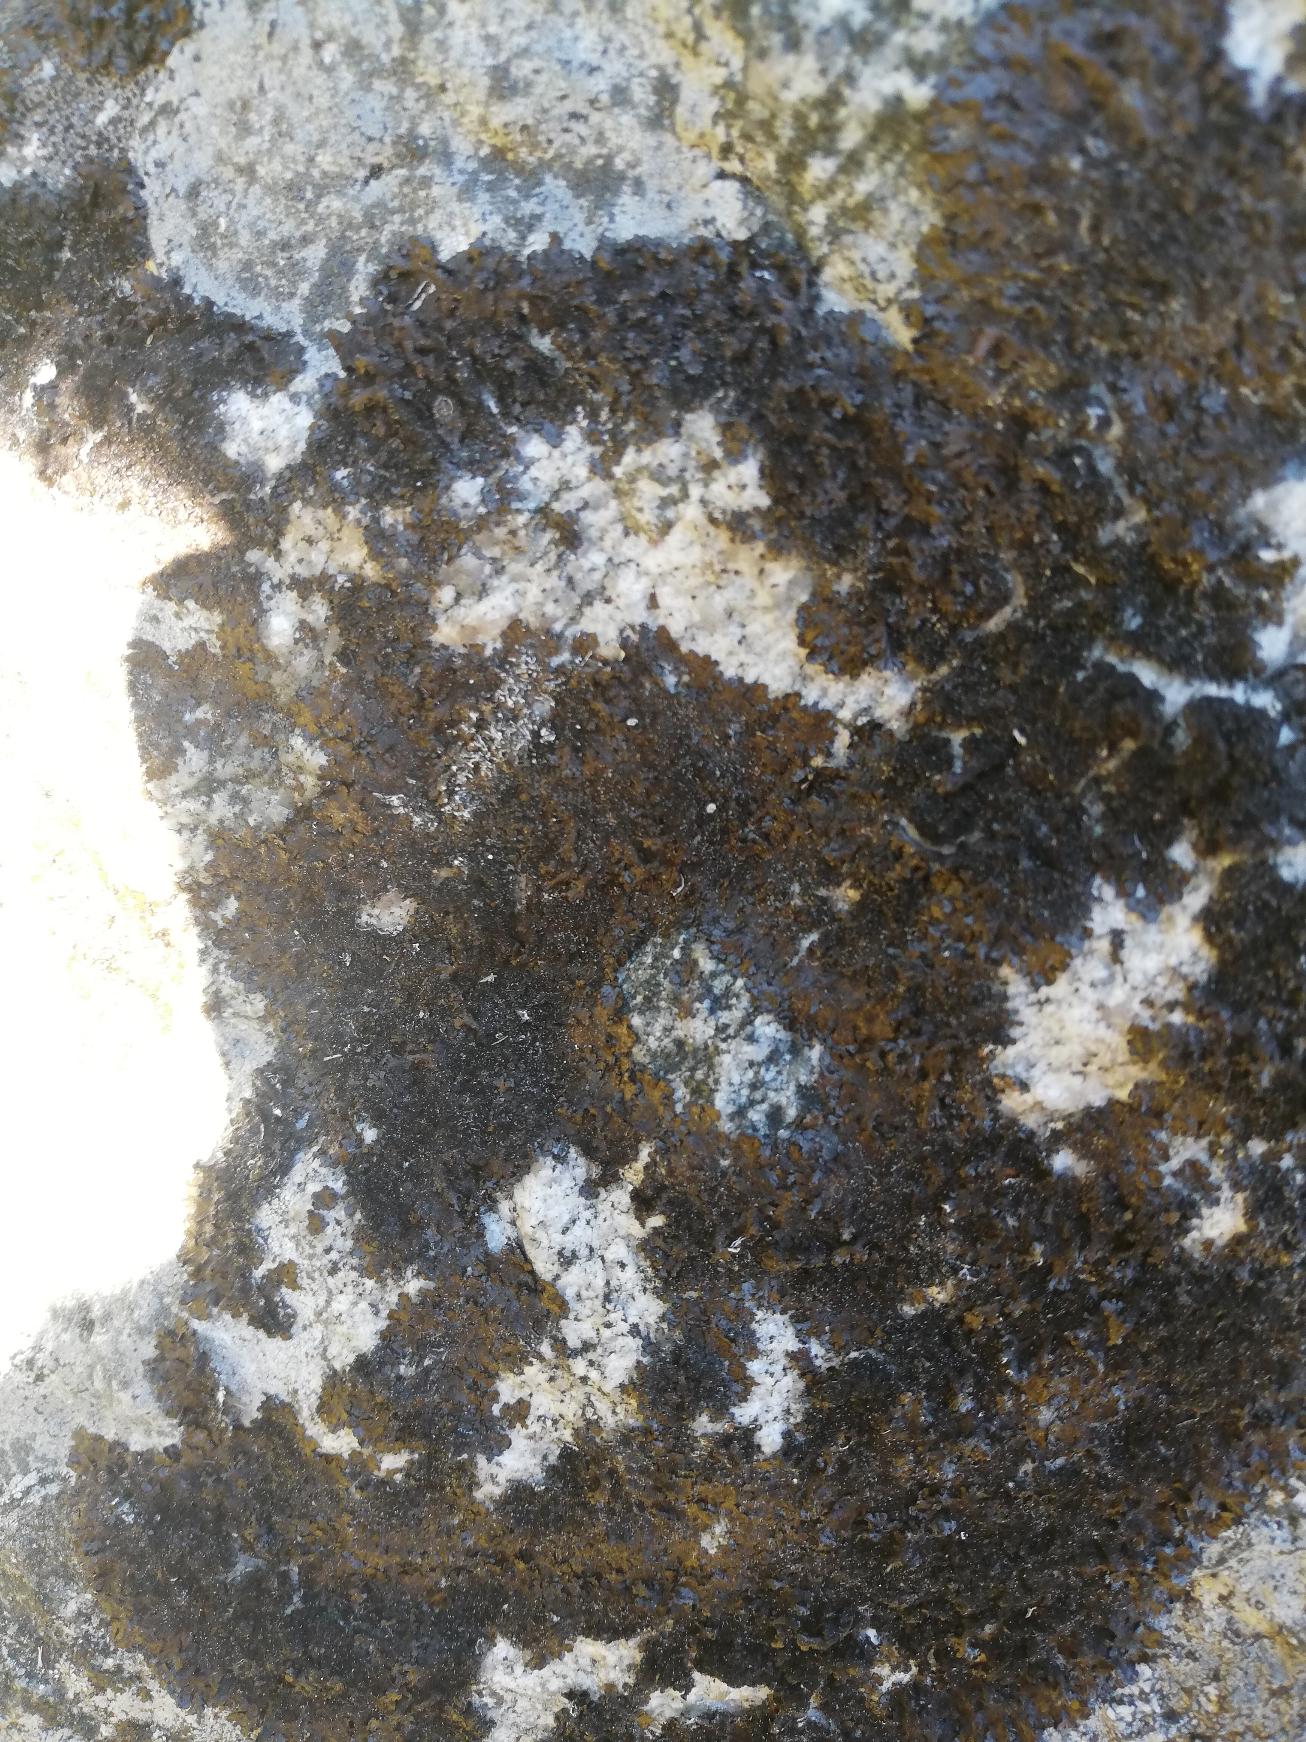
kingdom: Fungi
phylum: Ascomycota
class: Lecanoromycetes
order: Lecanorales
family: Parmeliaceae
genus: Melanelixia
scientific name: Melanelixia fuliginosa
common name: Sod-skållav
